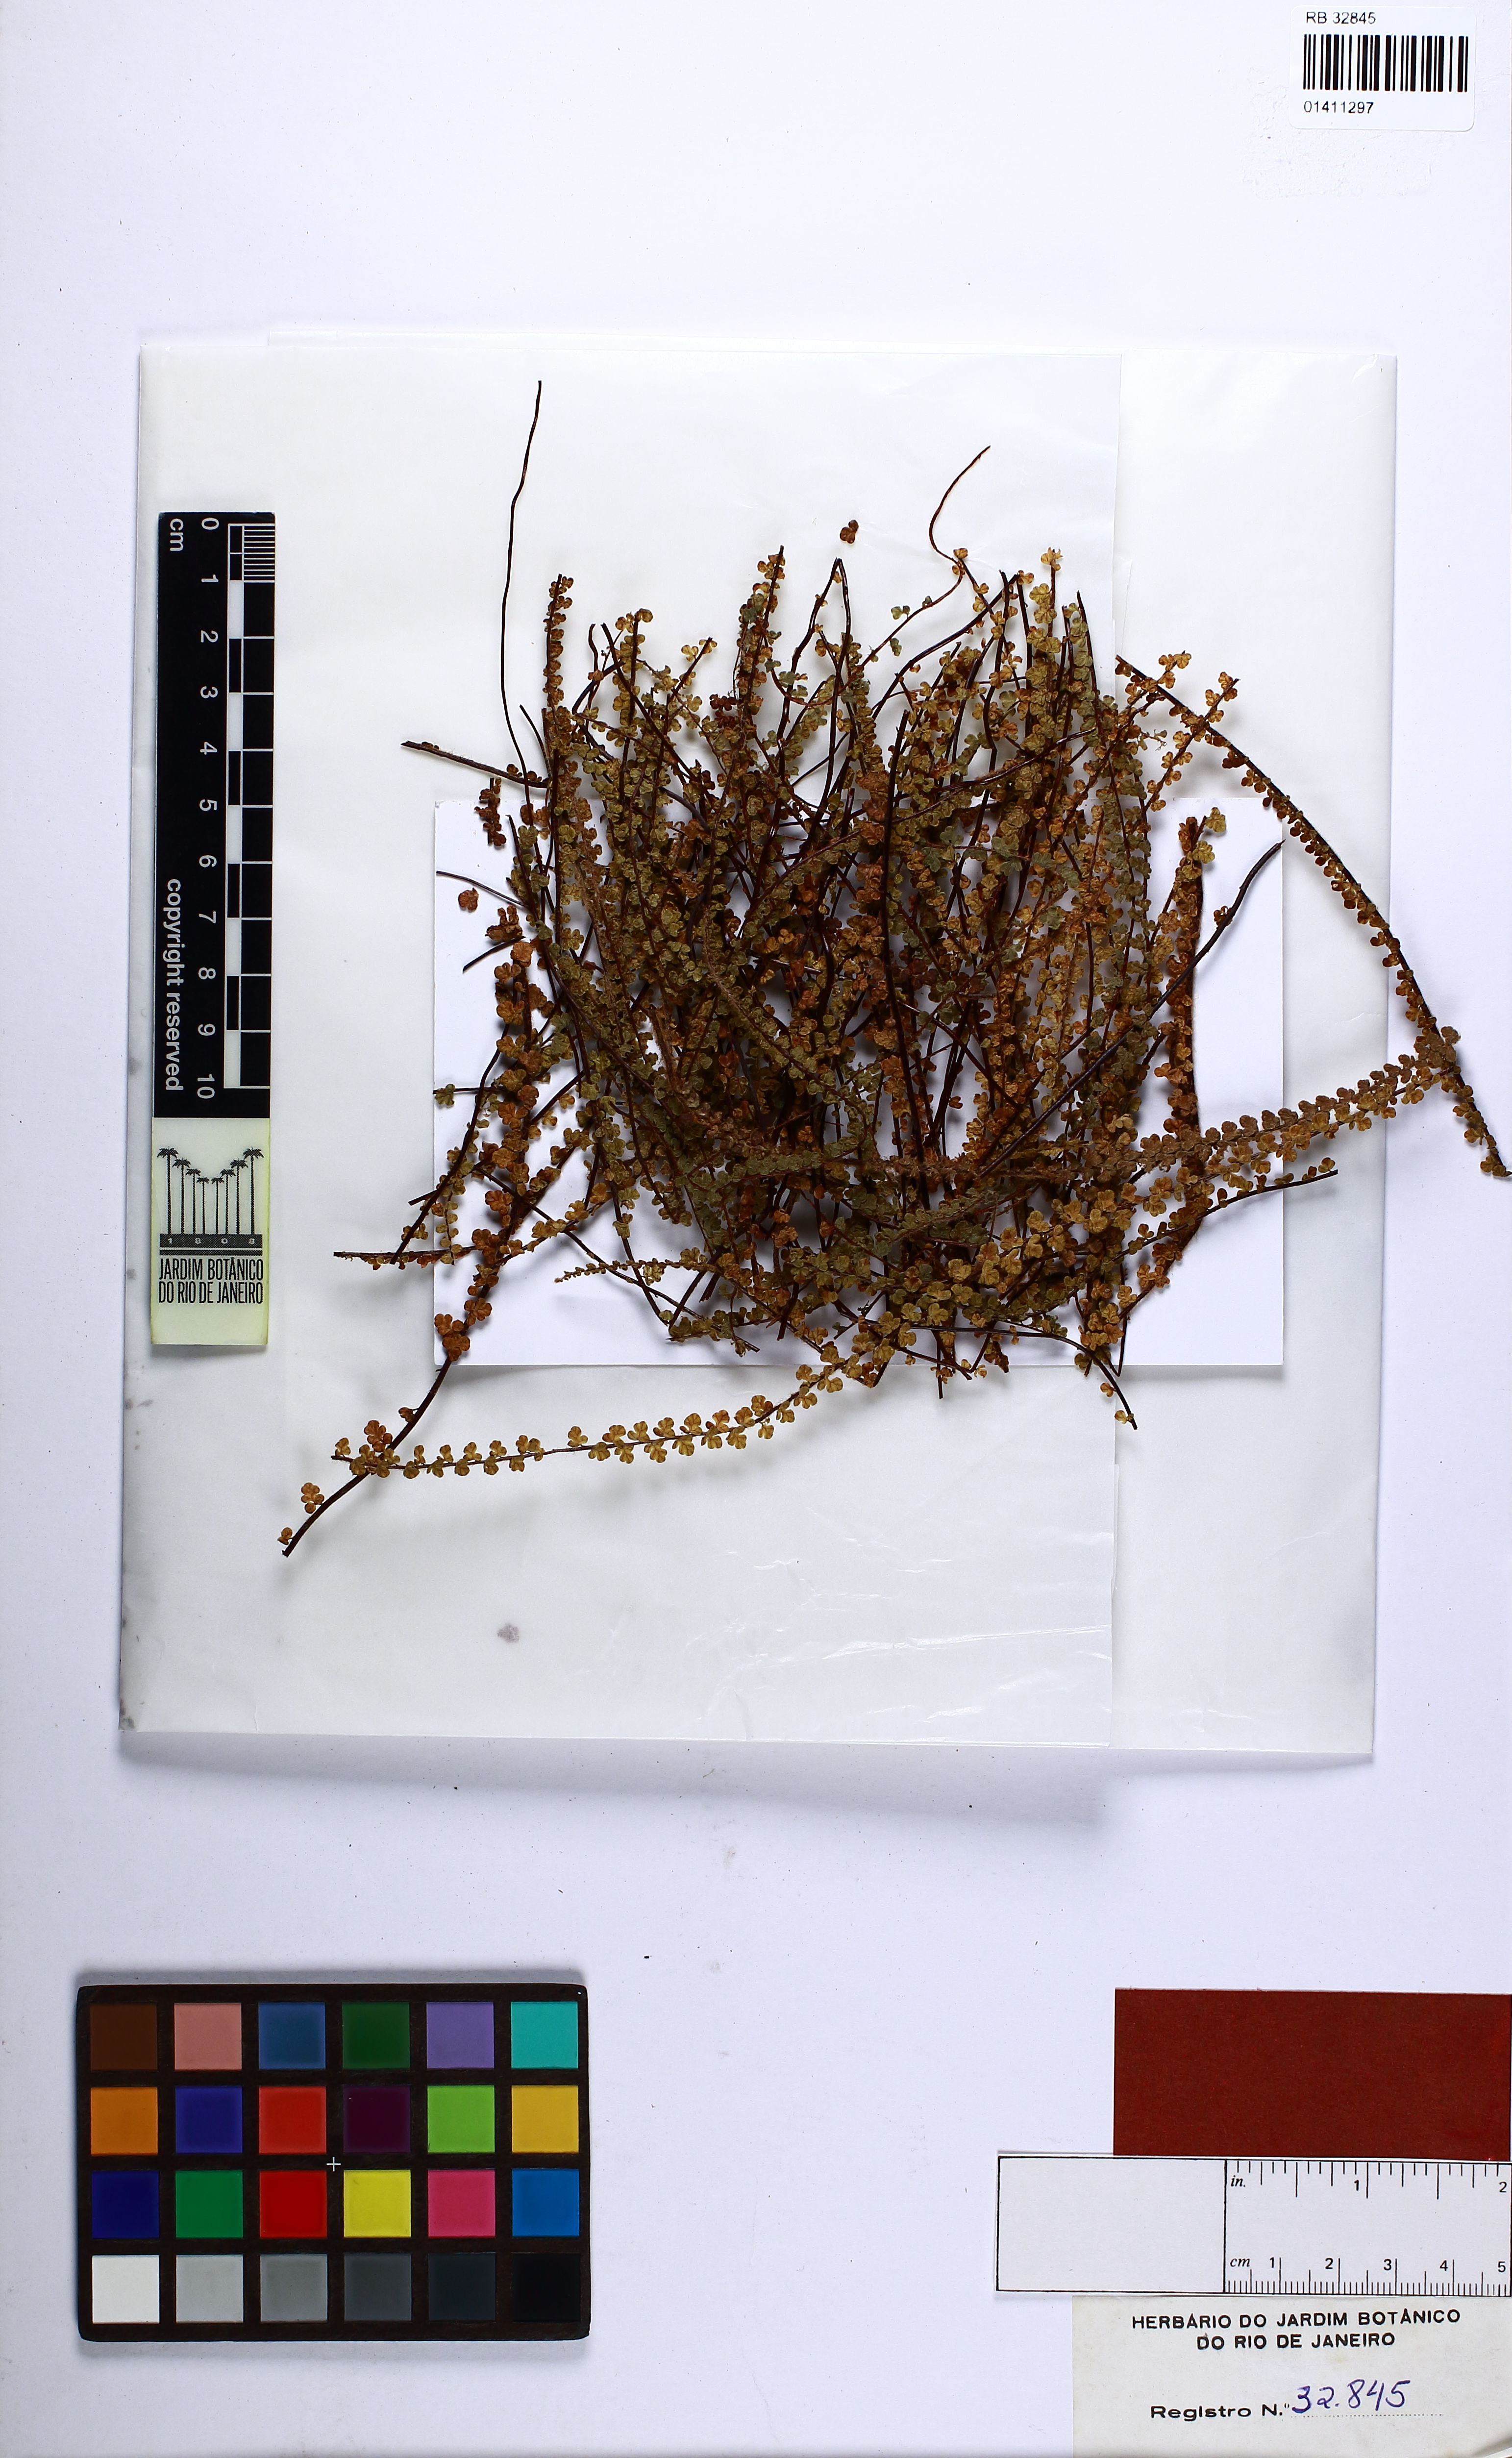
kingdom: Plantae
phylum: Tracheophyta
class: Polypodiopsida
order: Polypodiales
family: Pteridaceae
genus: Jamesonia
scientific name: Jamesonia elongata
